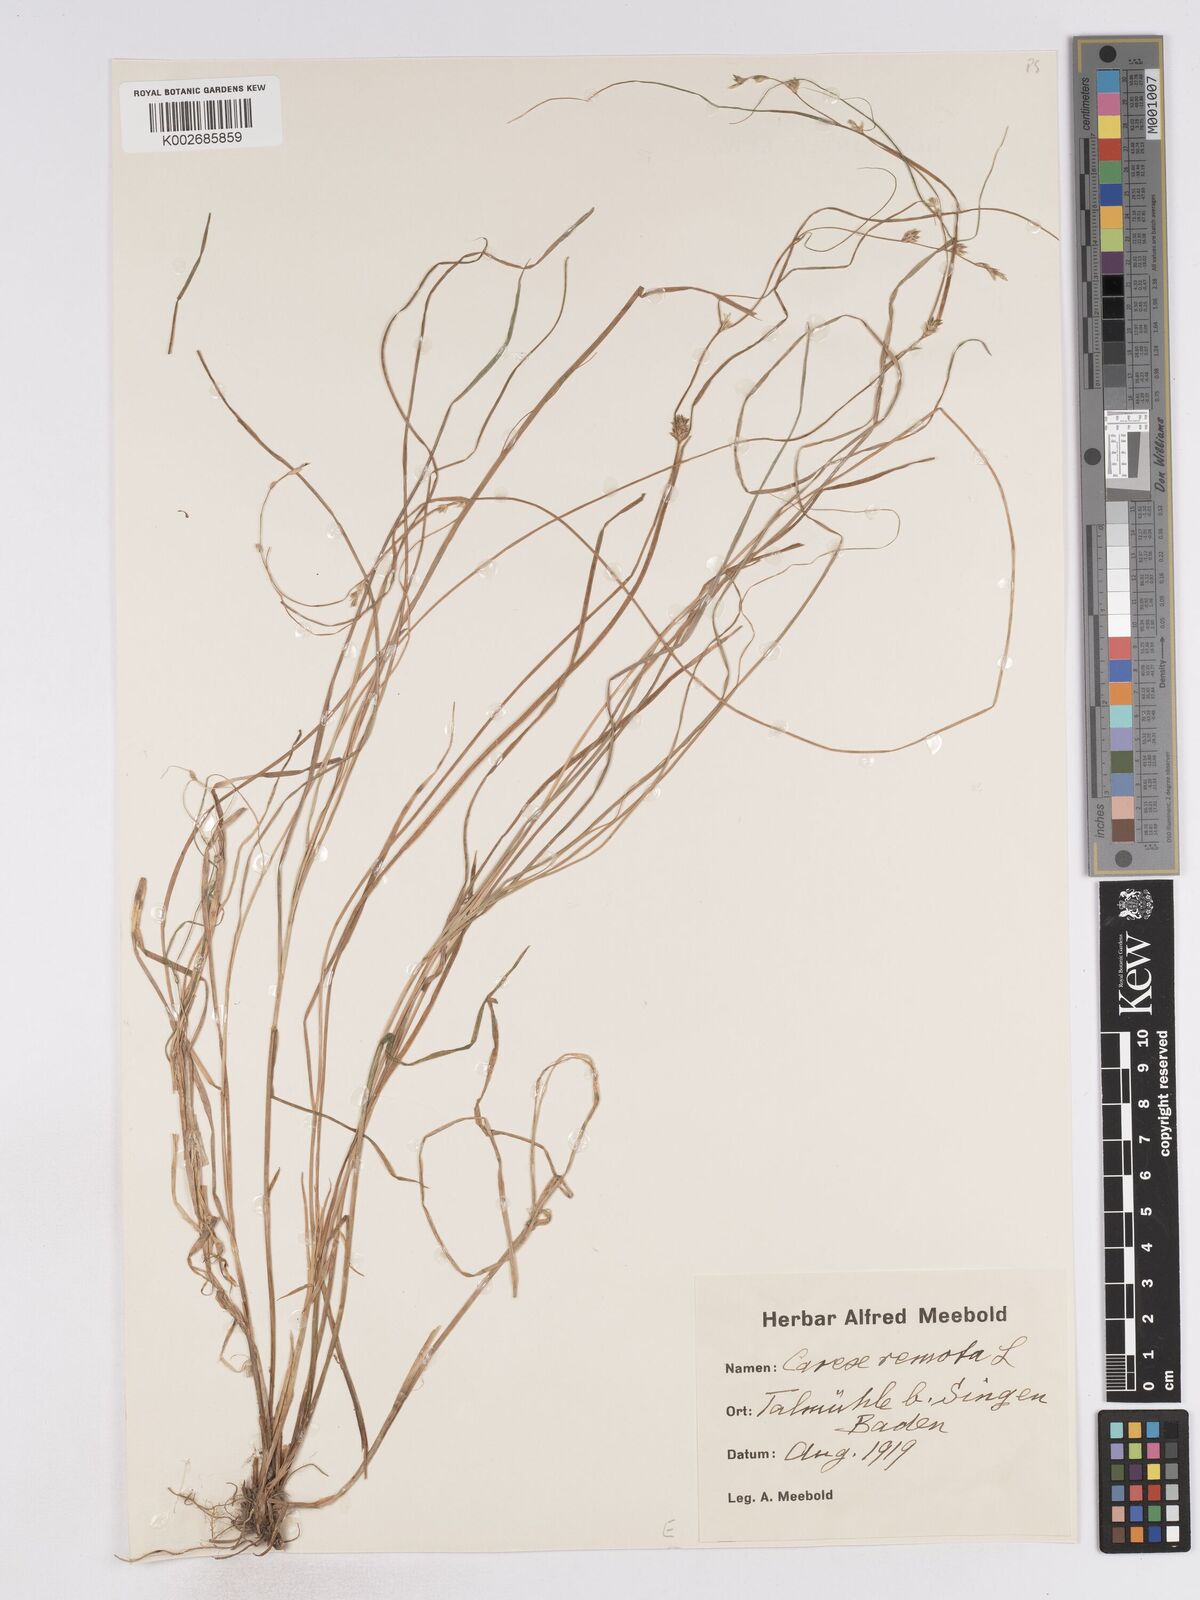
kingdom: Plantae
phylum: Tracheophyta
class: Liliopsida
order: Poales
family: Cyperaceae
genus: Carex
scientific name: Carex remota
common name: Remote sedge
